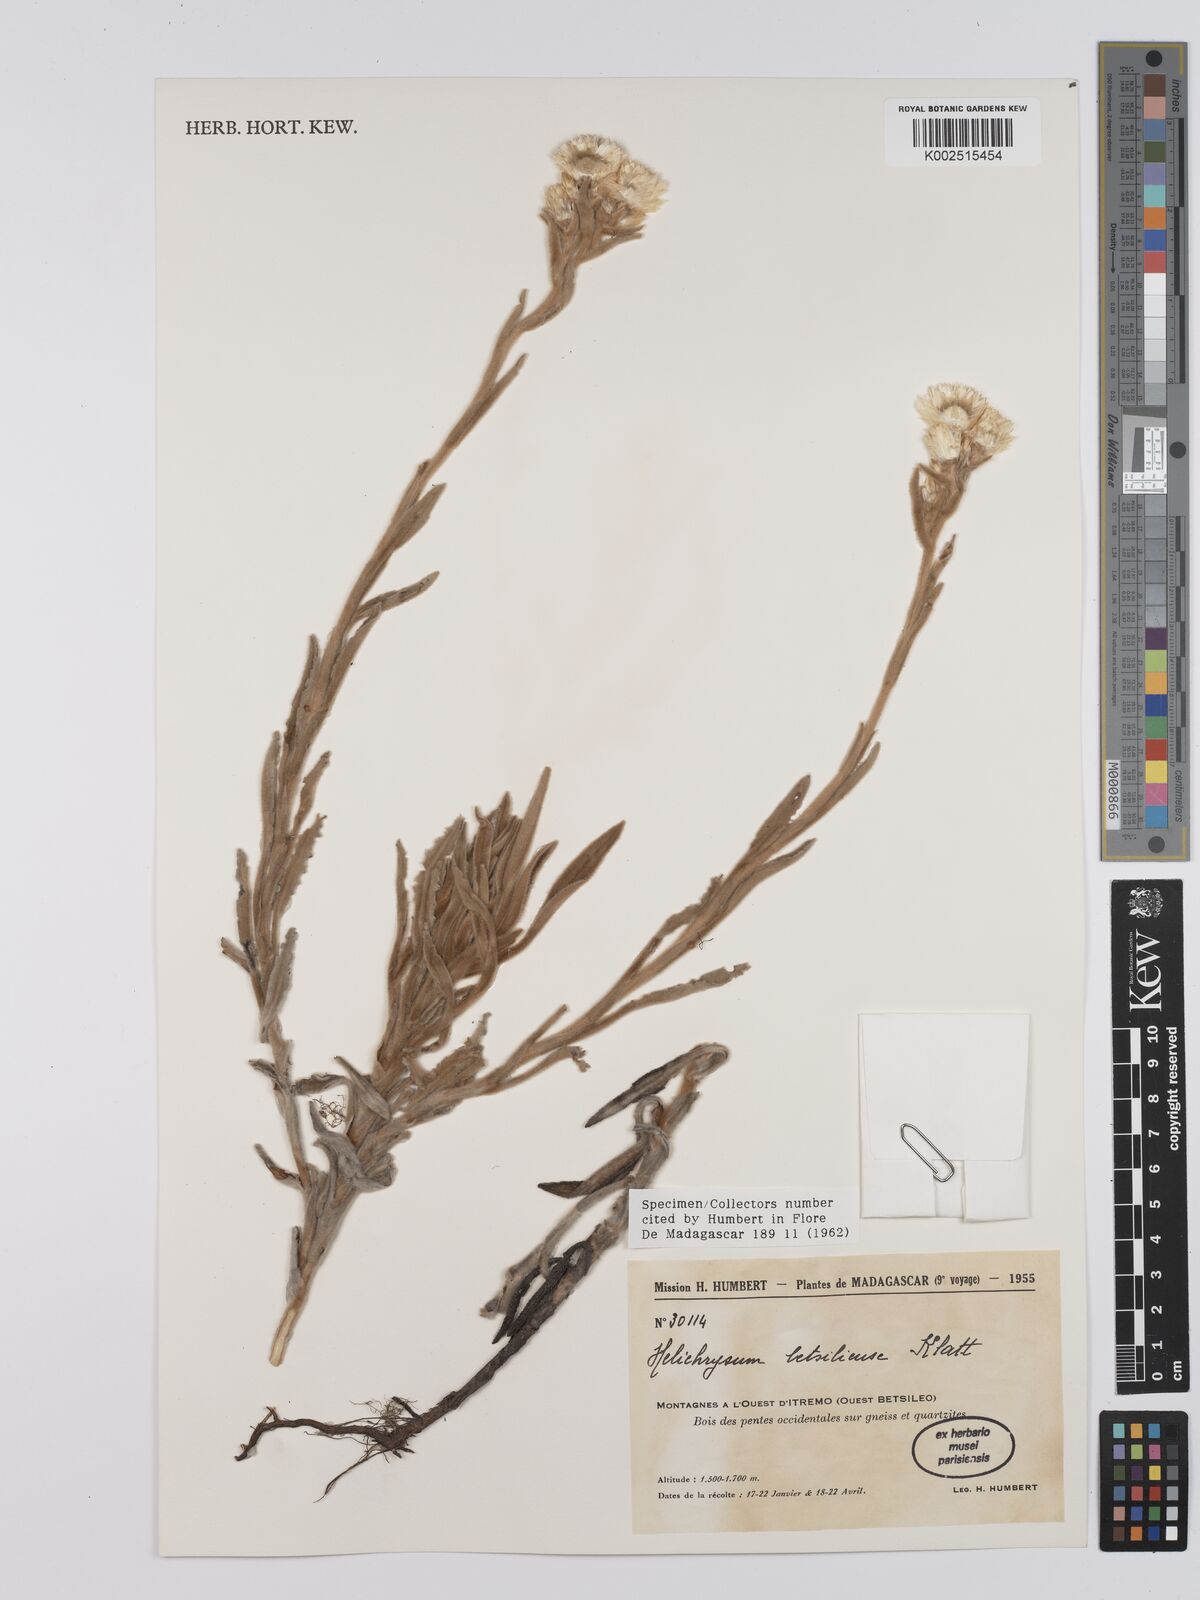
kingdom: Plantae
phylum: Tracheophyta
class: Magnoliopsida
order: Asterales
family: Asteraceae
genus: Helichrysum
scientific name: Helichrysum betsiliense
